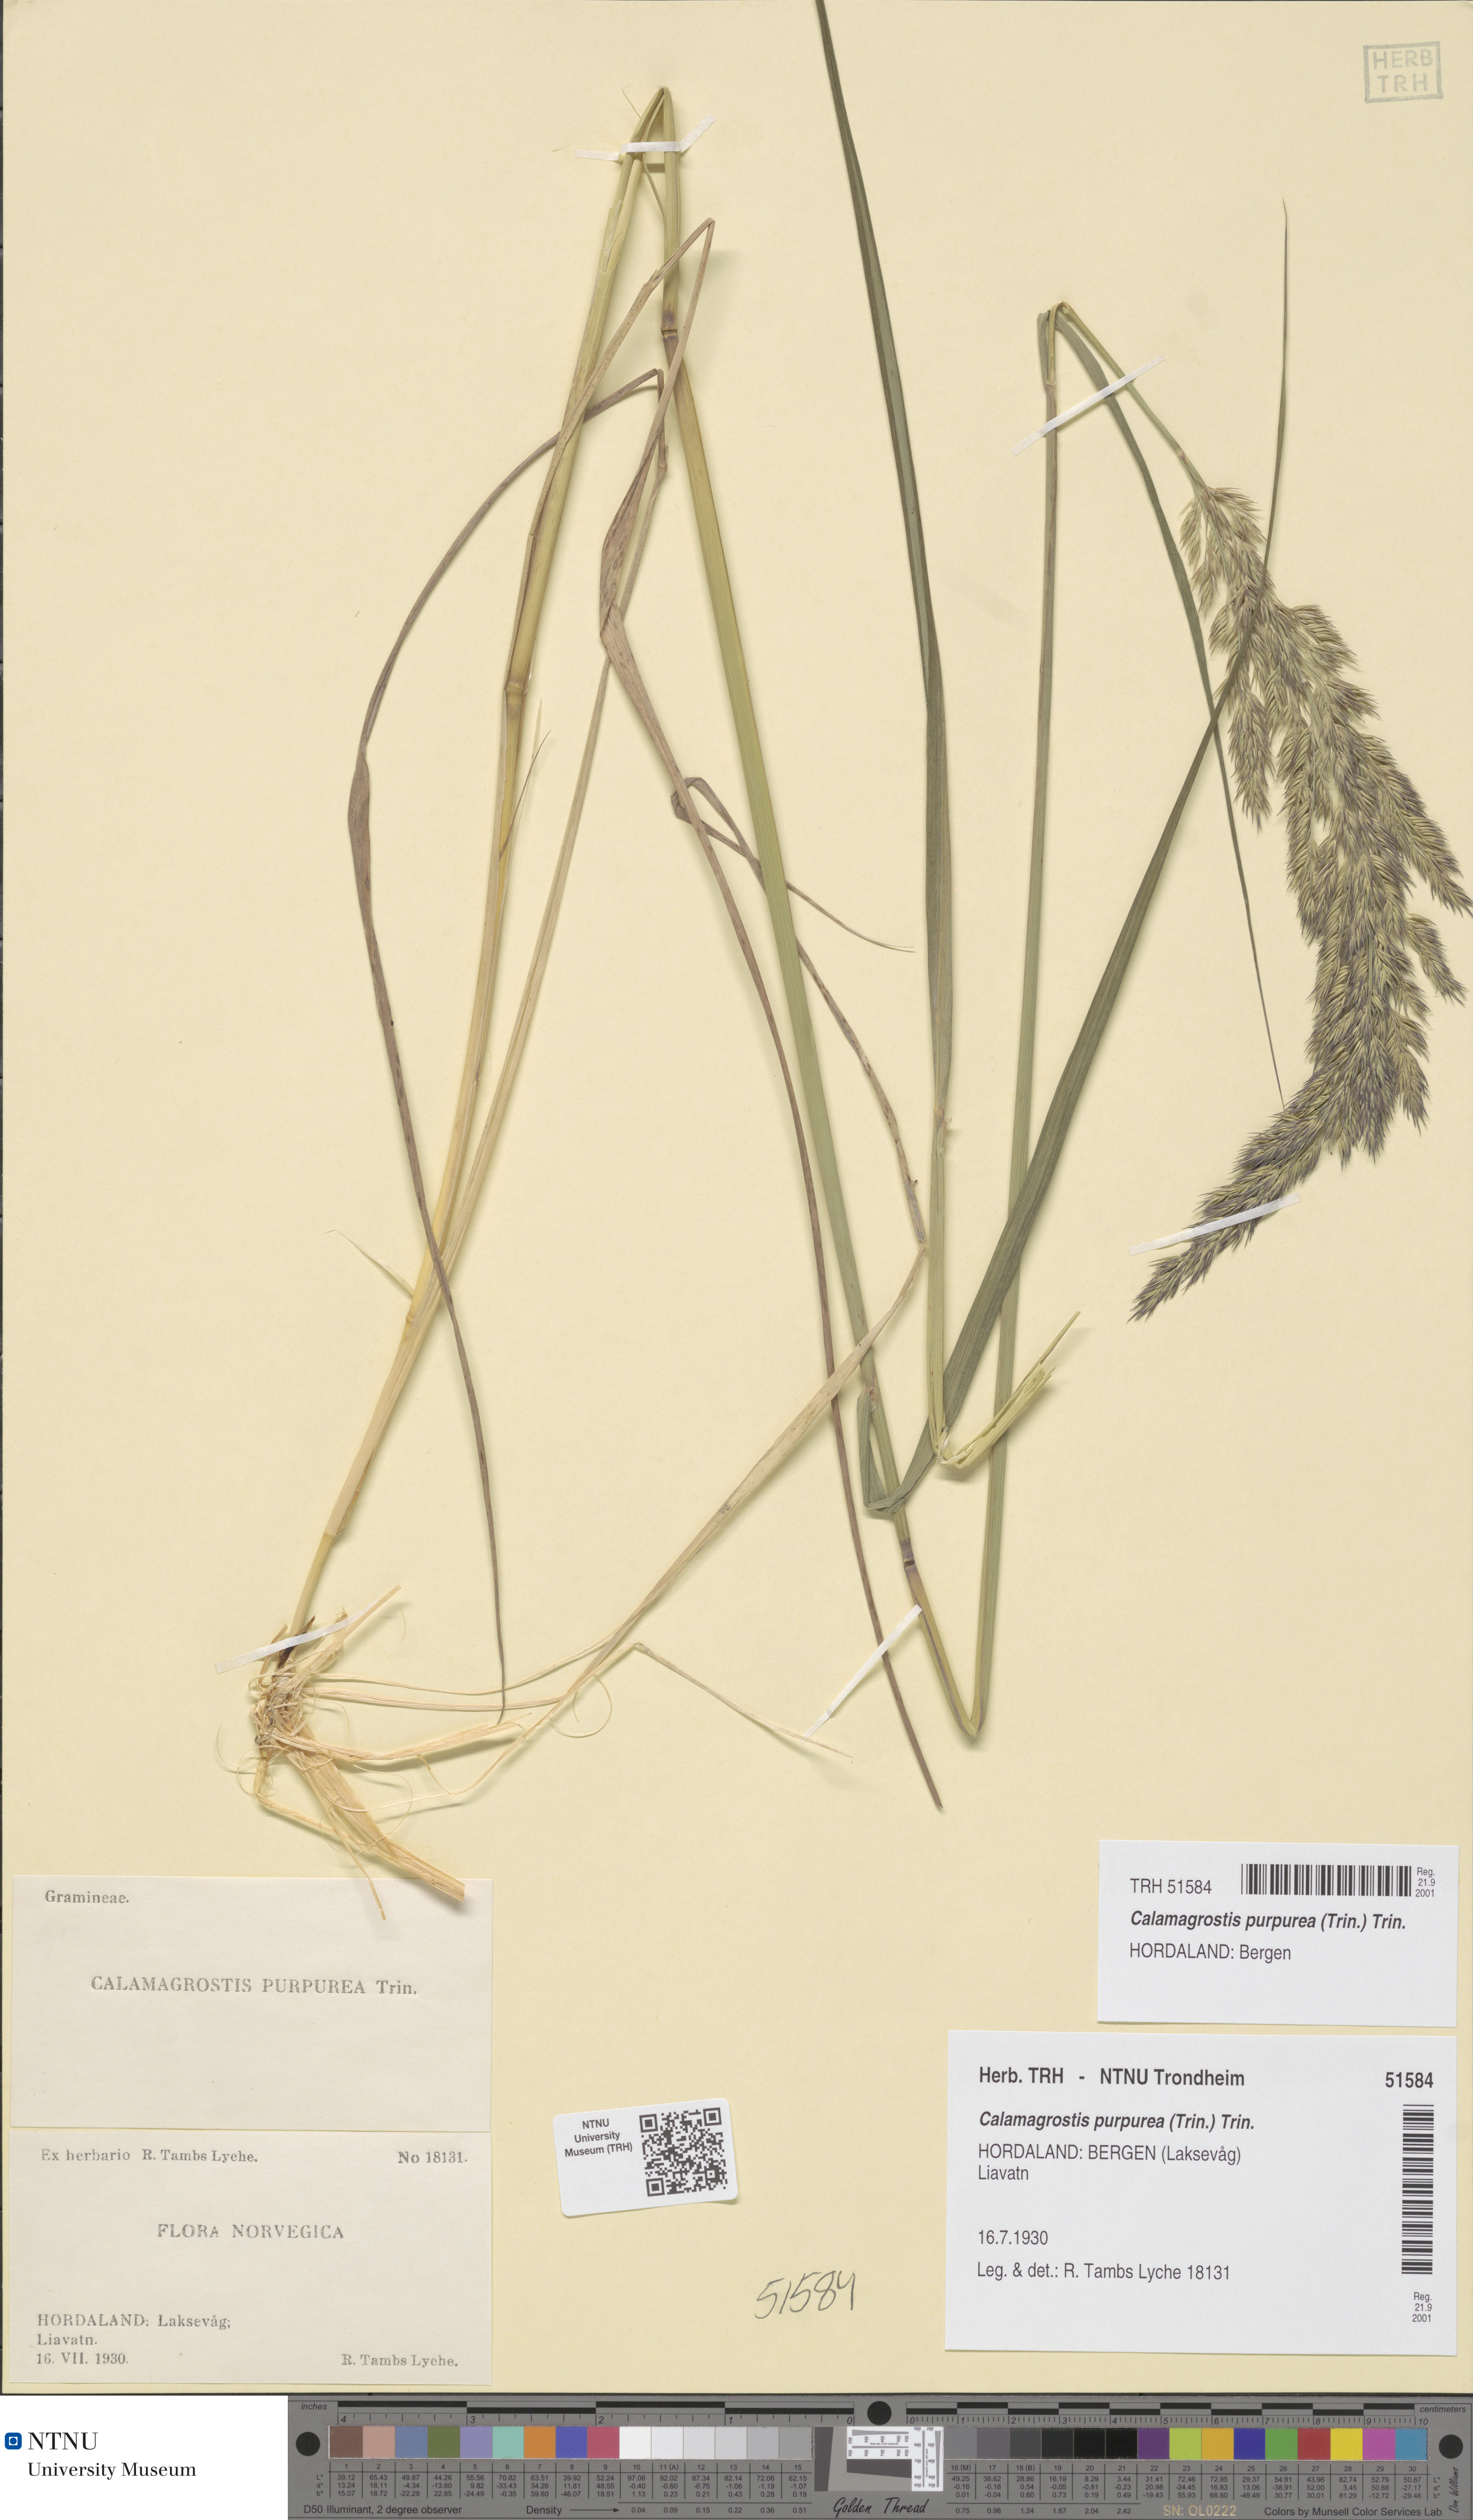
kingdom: Plantae
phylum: Tracheophyta
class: Liliopsida
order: Poales
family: Poaceae
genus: Calamagrostis
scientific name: Calamagrostis purpurea
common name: Scandinavian small-reed
